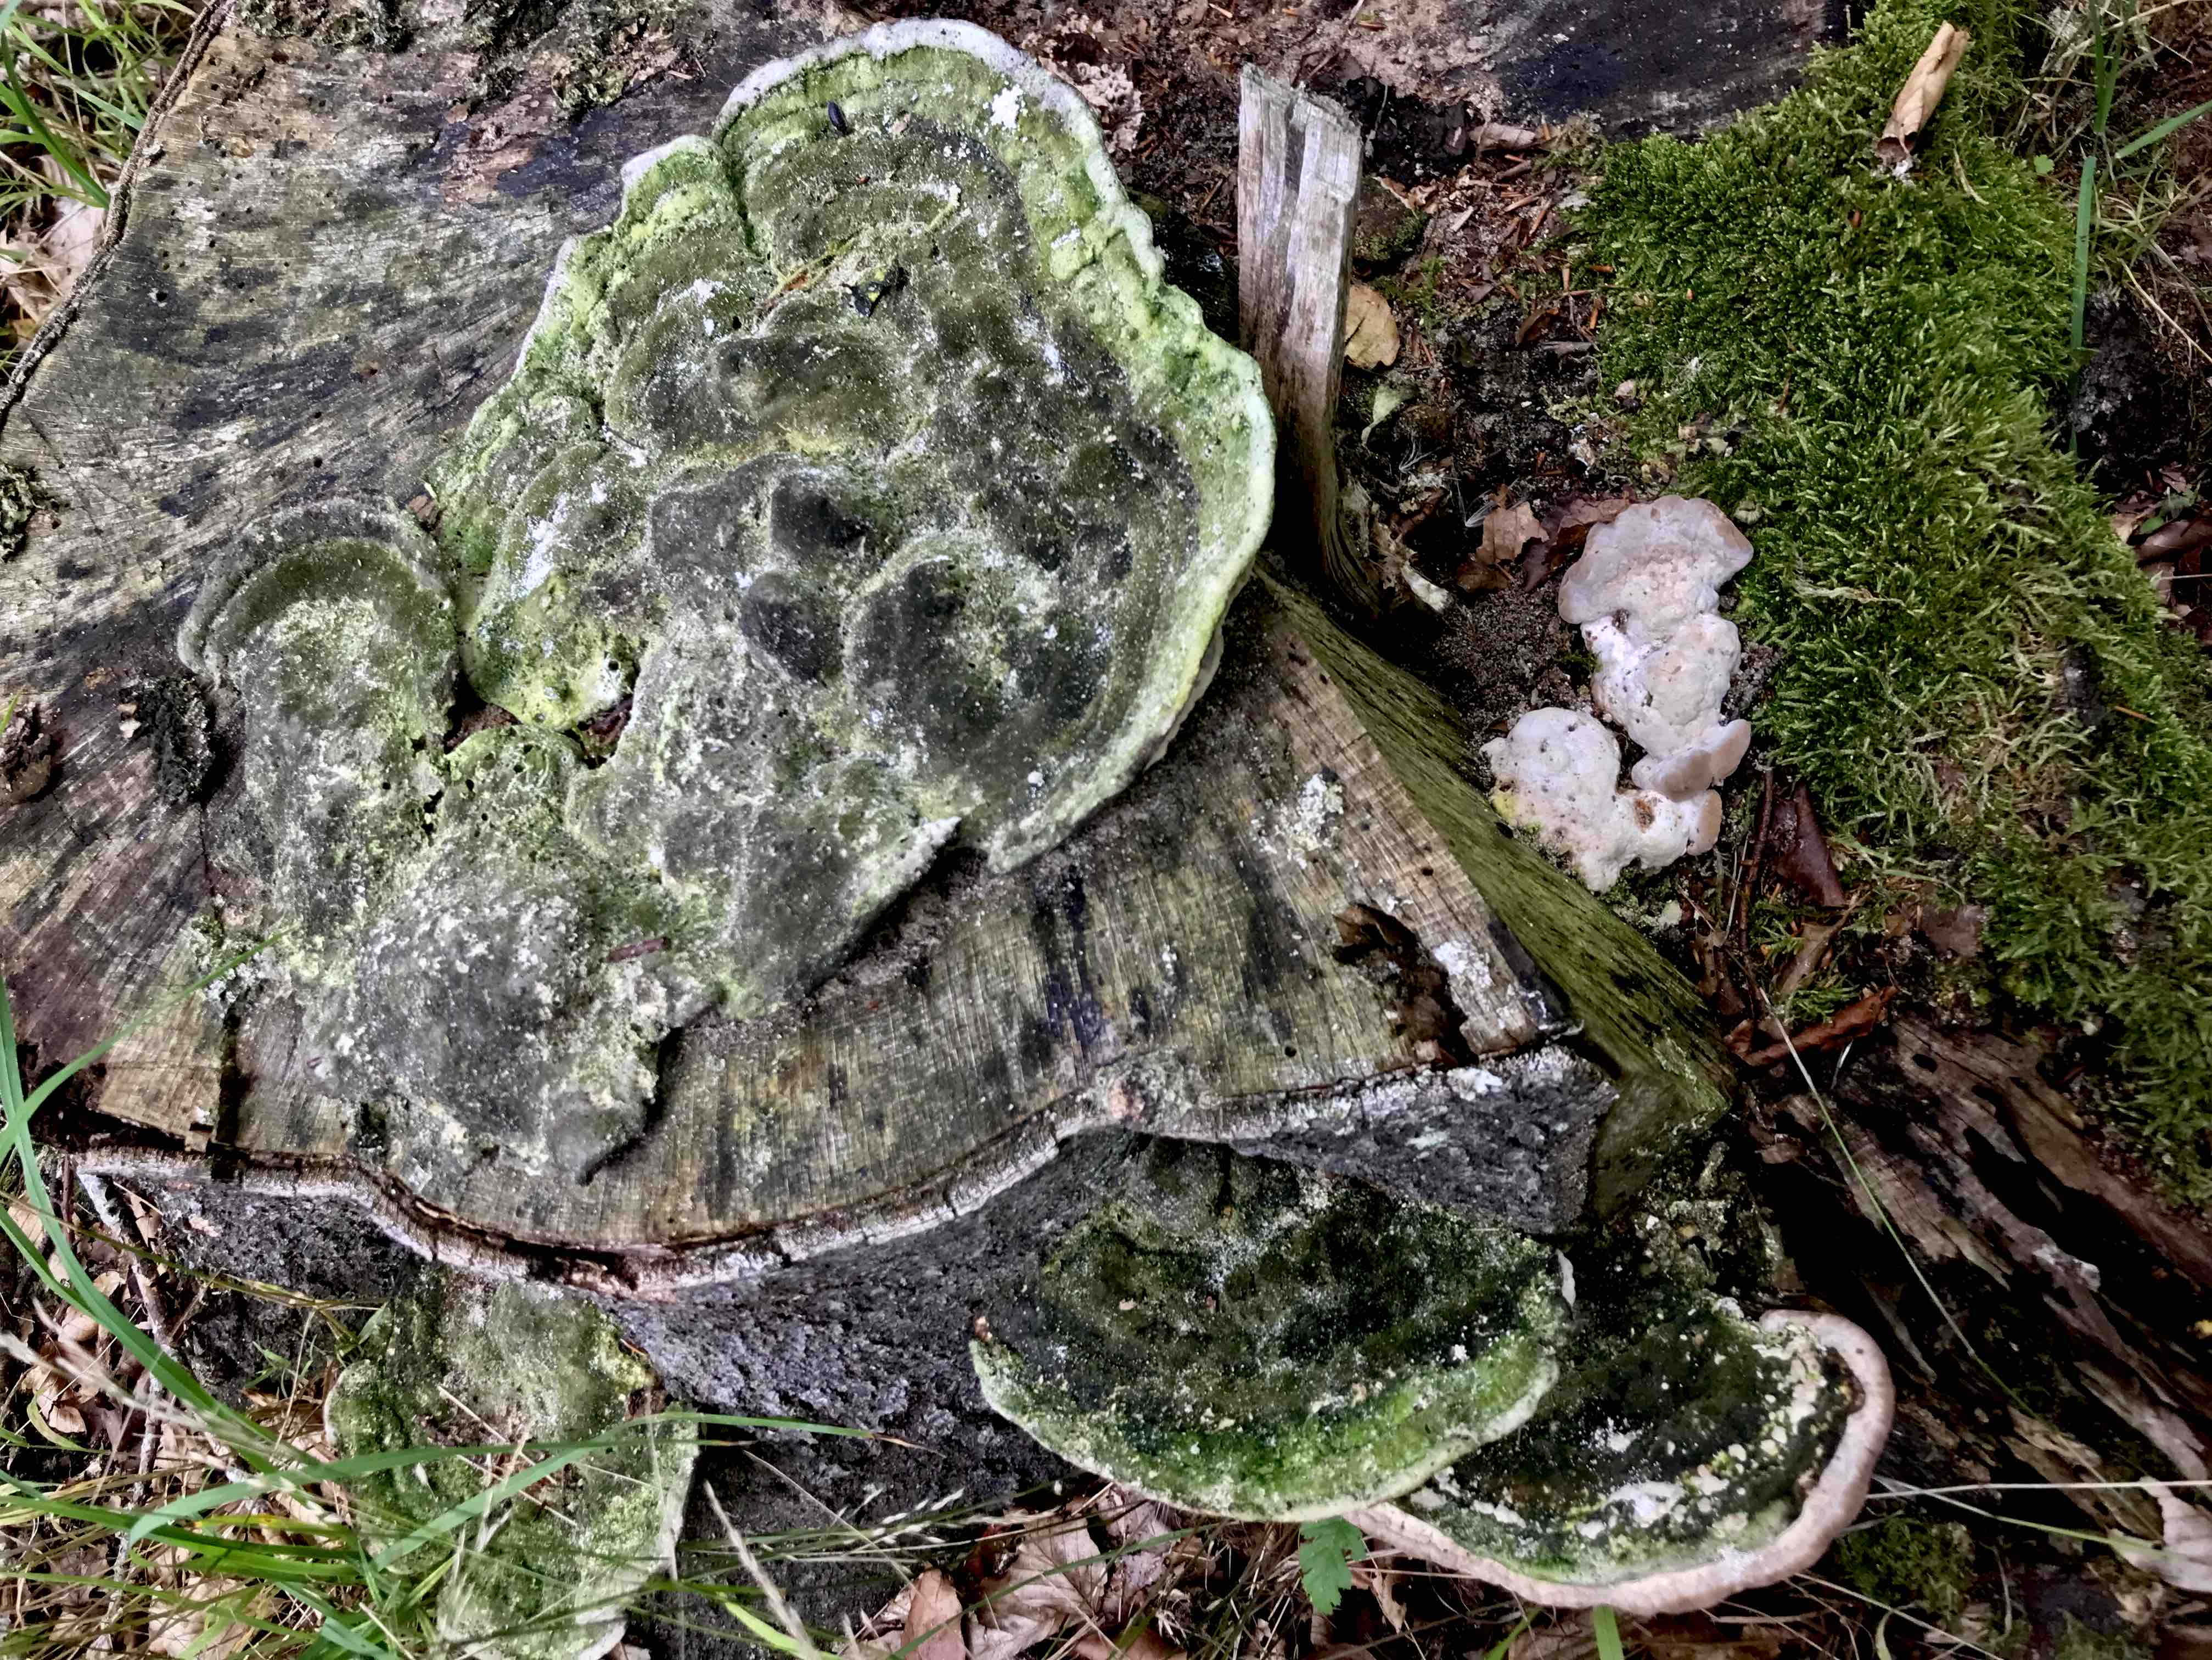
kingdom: Fungi
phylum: Basidiomycota
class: Agaricomycetes
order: Polyporales
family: Polyporaceae
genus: Trametes
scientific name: Trametes gibbosa
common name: puklet læderporesvamp
